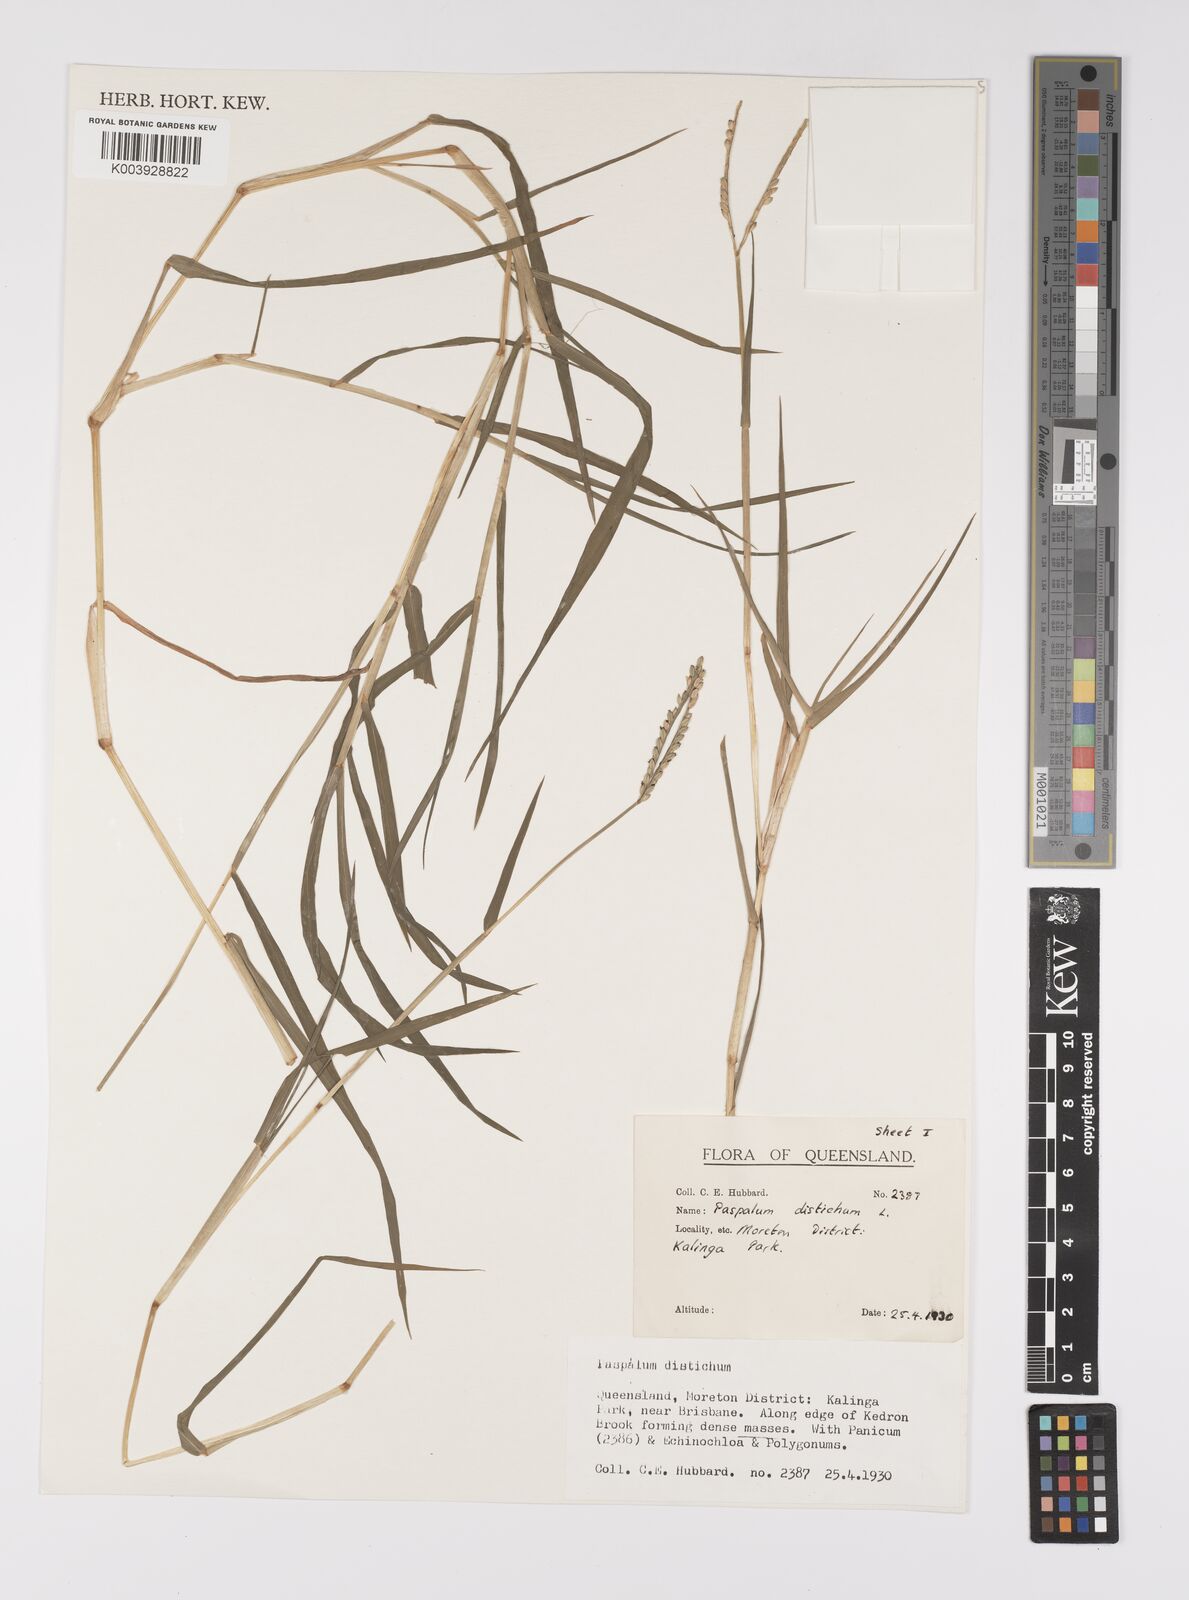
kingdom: Plantae
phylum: Tracheophyta
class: Liliopsida
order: Poales
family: Poaceae
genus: Paspalum
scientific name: Paspalum distichum
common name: Knotgrass
